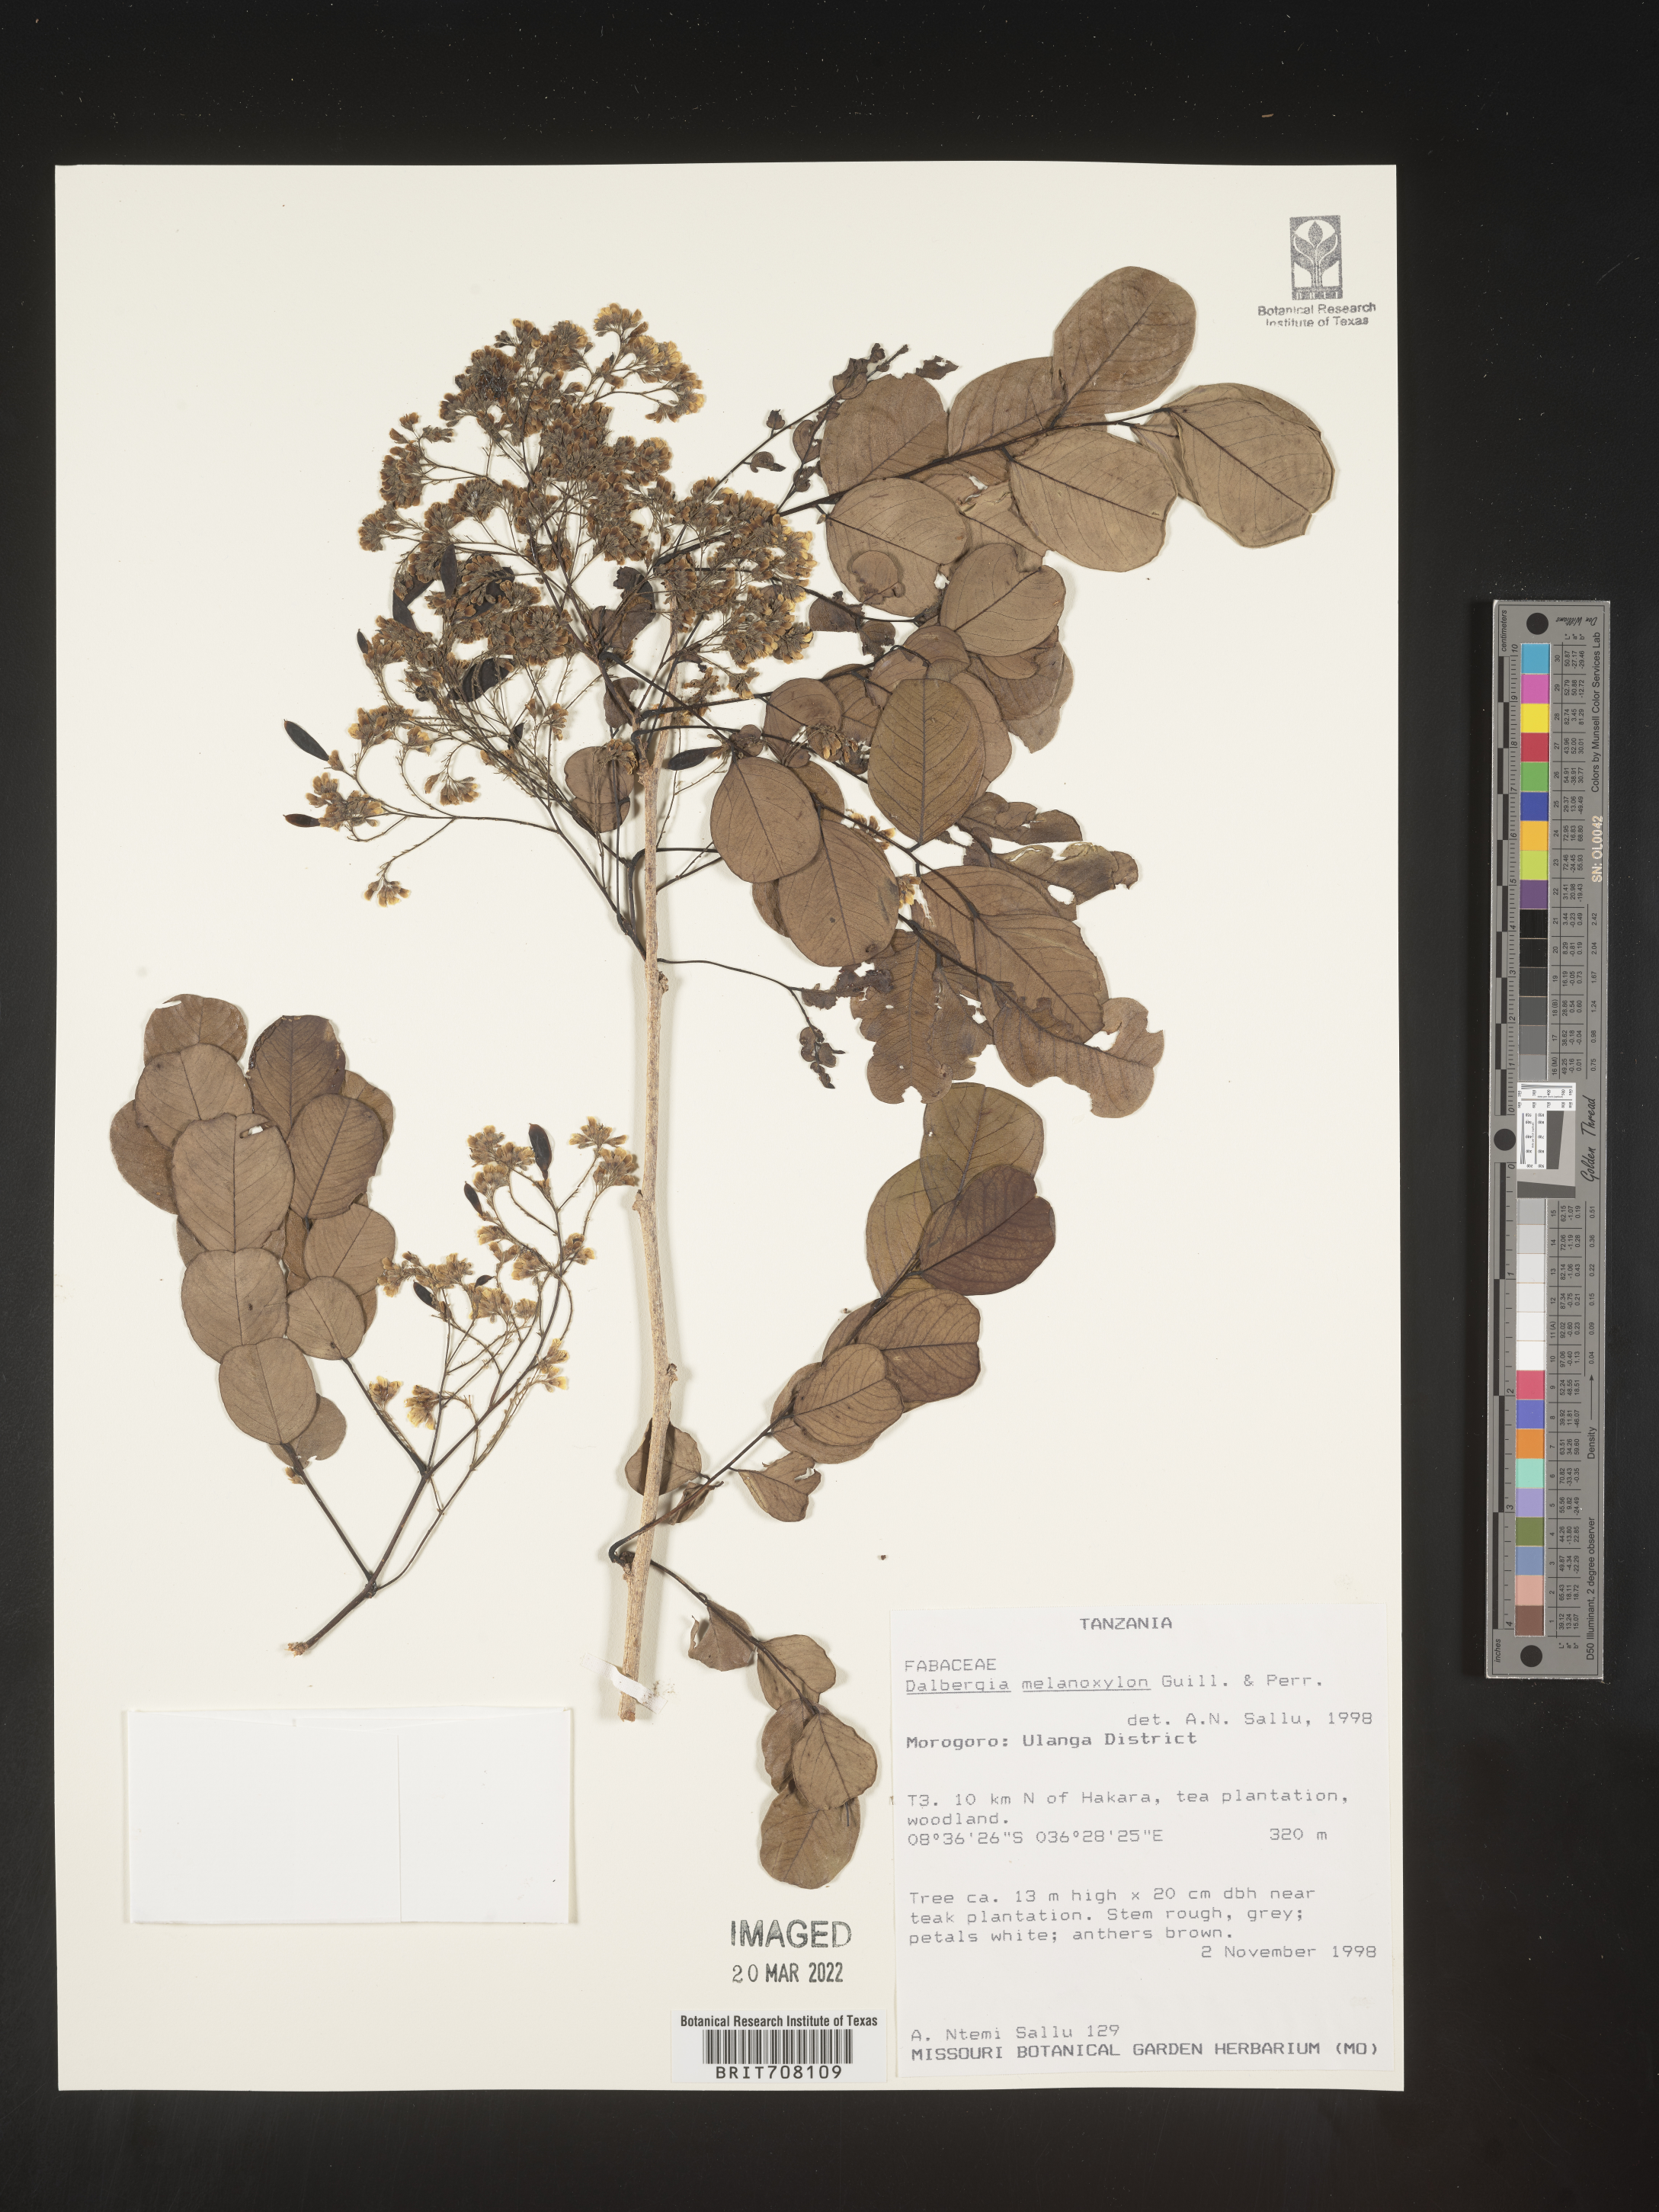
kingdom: Plantae
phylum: Tracheophyta
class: Magnoliopsida
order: Fabales
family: Fabaceae
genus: Dalbergia
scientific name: Dalbergia
